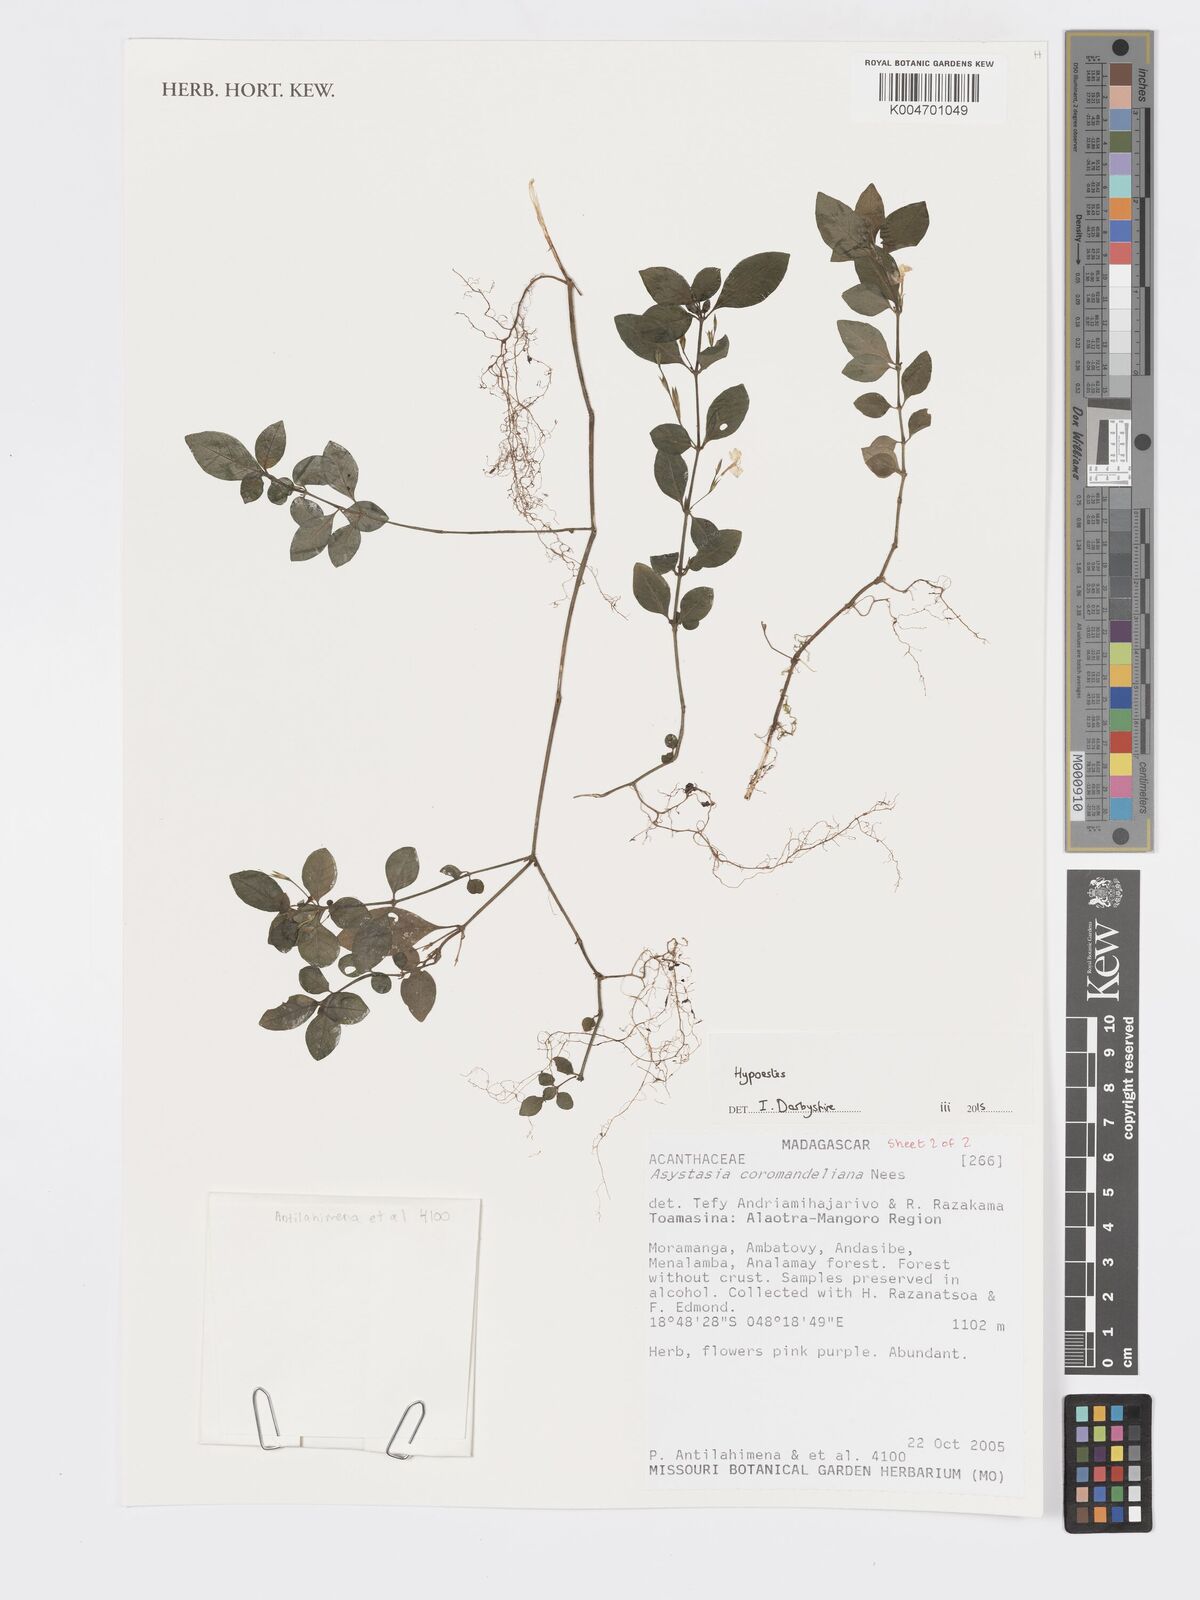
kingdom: Plantae
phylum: Tracheophyta
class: Magnoliopsida
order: Lamiales
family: Acanthaceae
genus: Hypoestes
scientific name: Hypoestes
